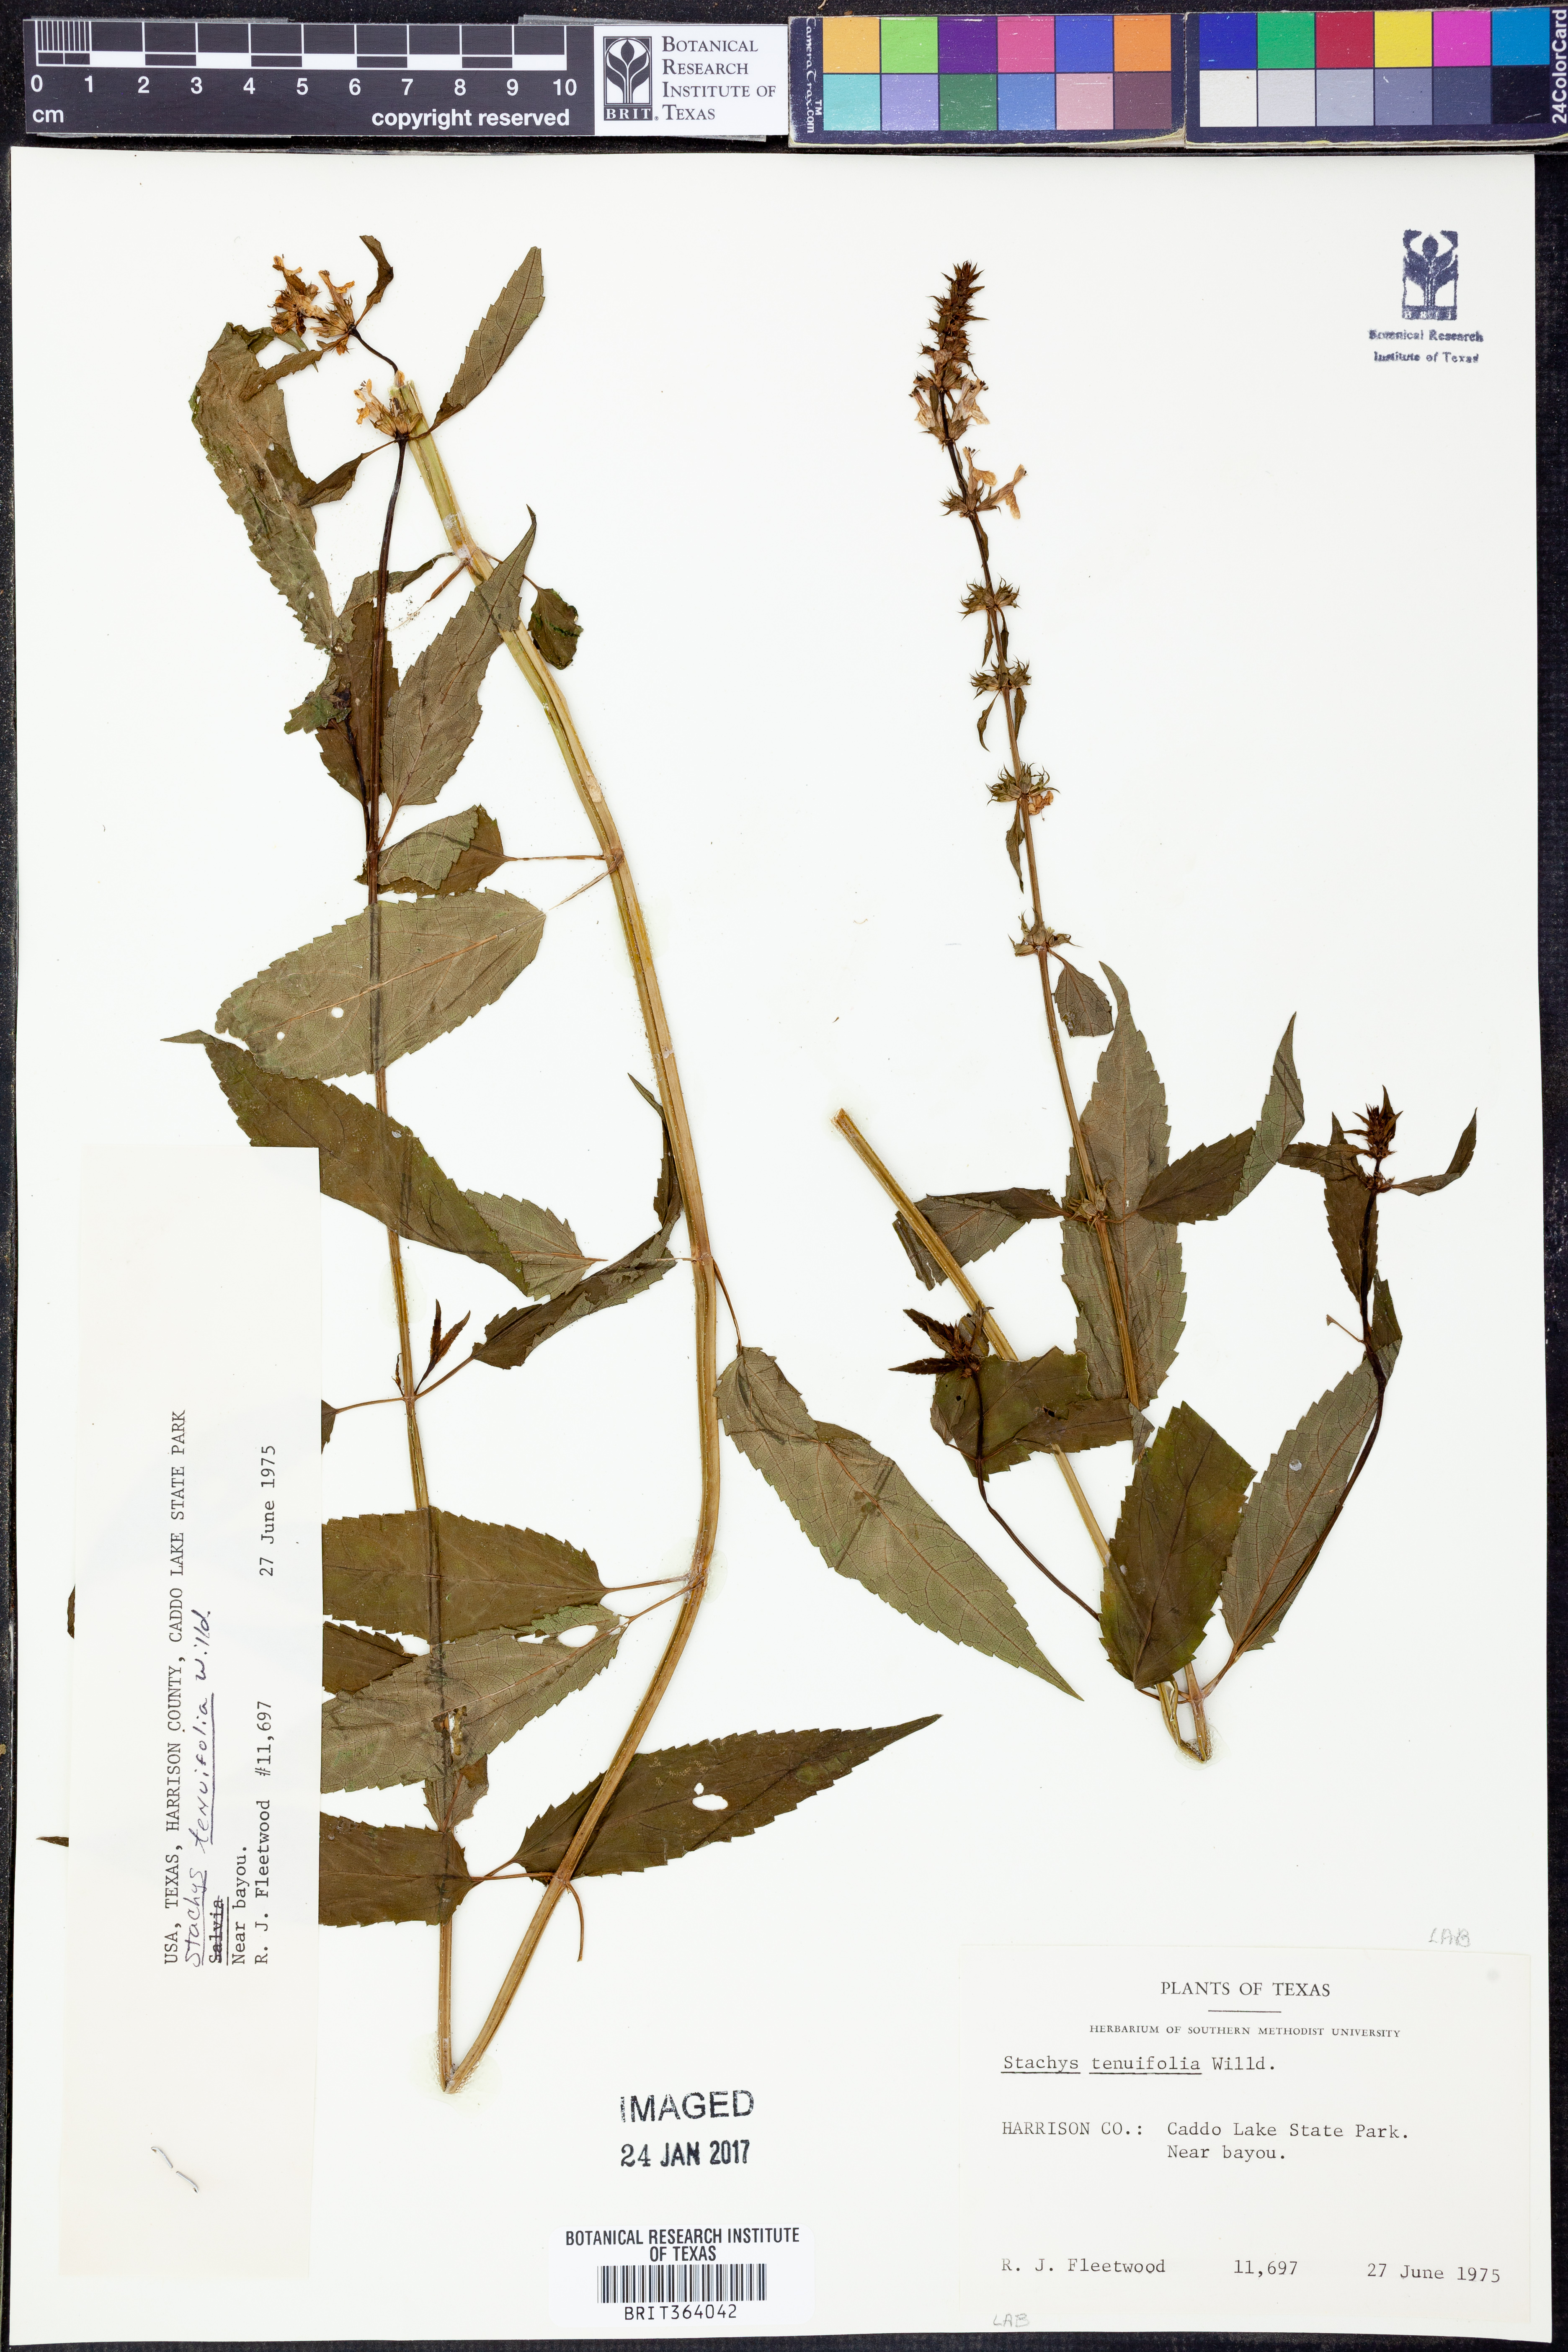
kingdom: Plantae
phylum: Tracheophyta
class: Magnoliopsida
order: Lamiales
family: Lamiaceae
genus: Stachys
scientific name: Stachys tenuifolia
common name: Smooth hedge-nettle
